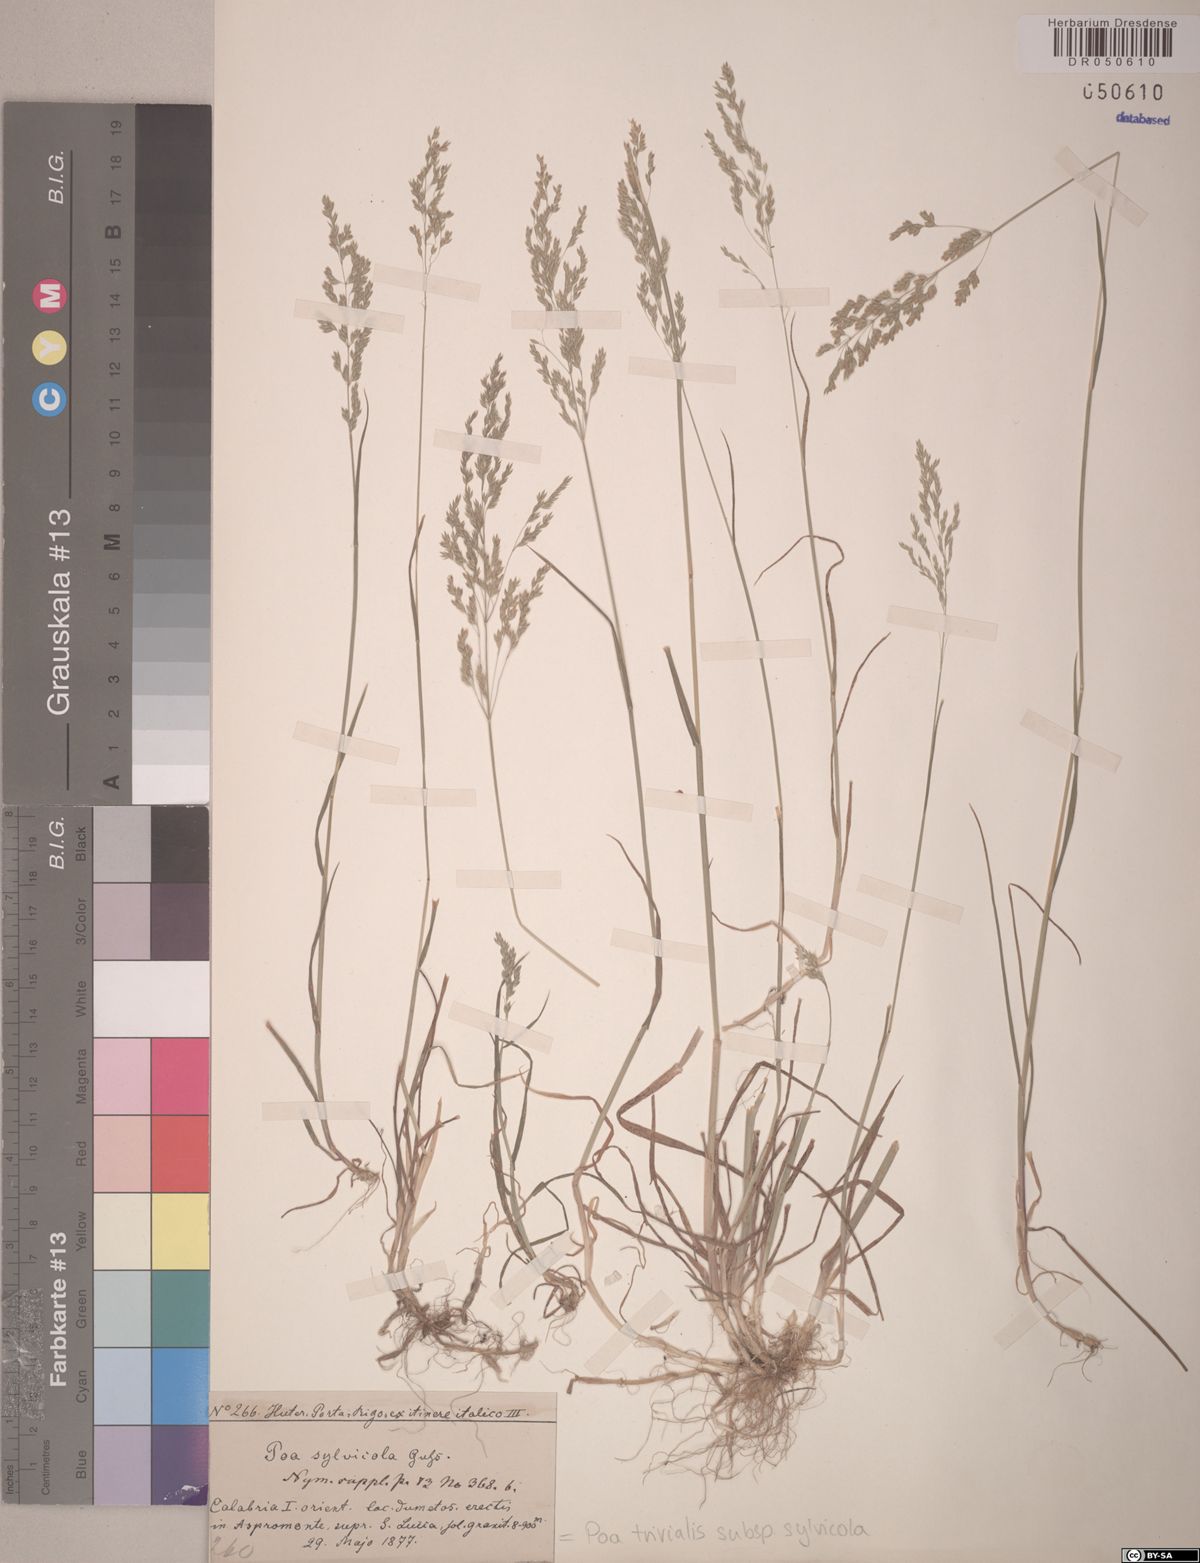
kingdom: Plantae
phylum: Tracheophyta
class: Liliopsida
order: Poales
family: Poaceae
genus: Poa
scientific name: Poa trivialis
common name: Rough bluegrass
